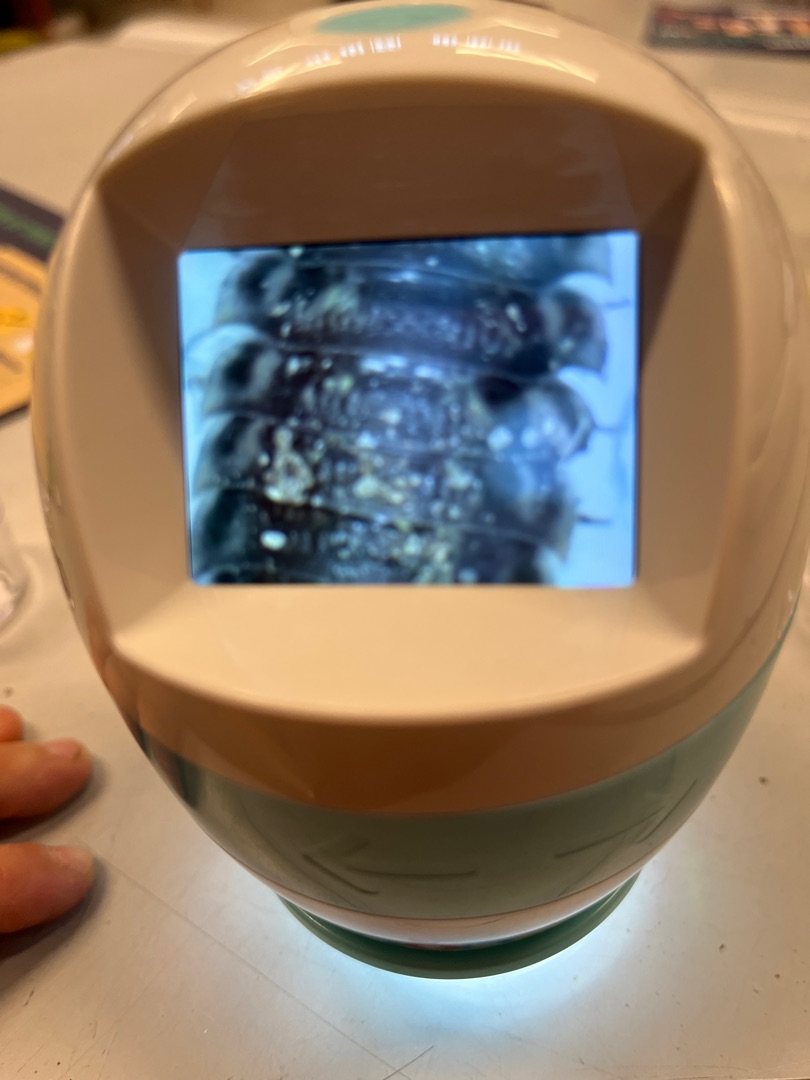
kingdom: Animalia
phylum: Arthropoda
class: Malacostraca
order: Isopoda
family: Oniscidae
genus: Oniscus
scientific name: Oniscus asellus
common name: Glat bænkebider
